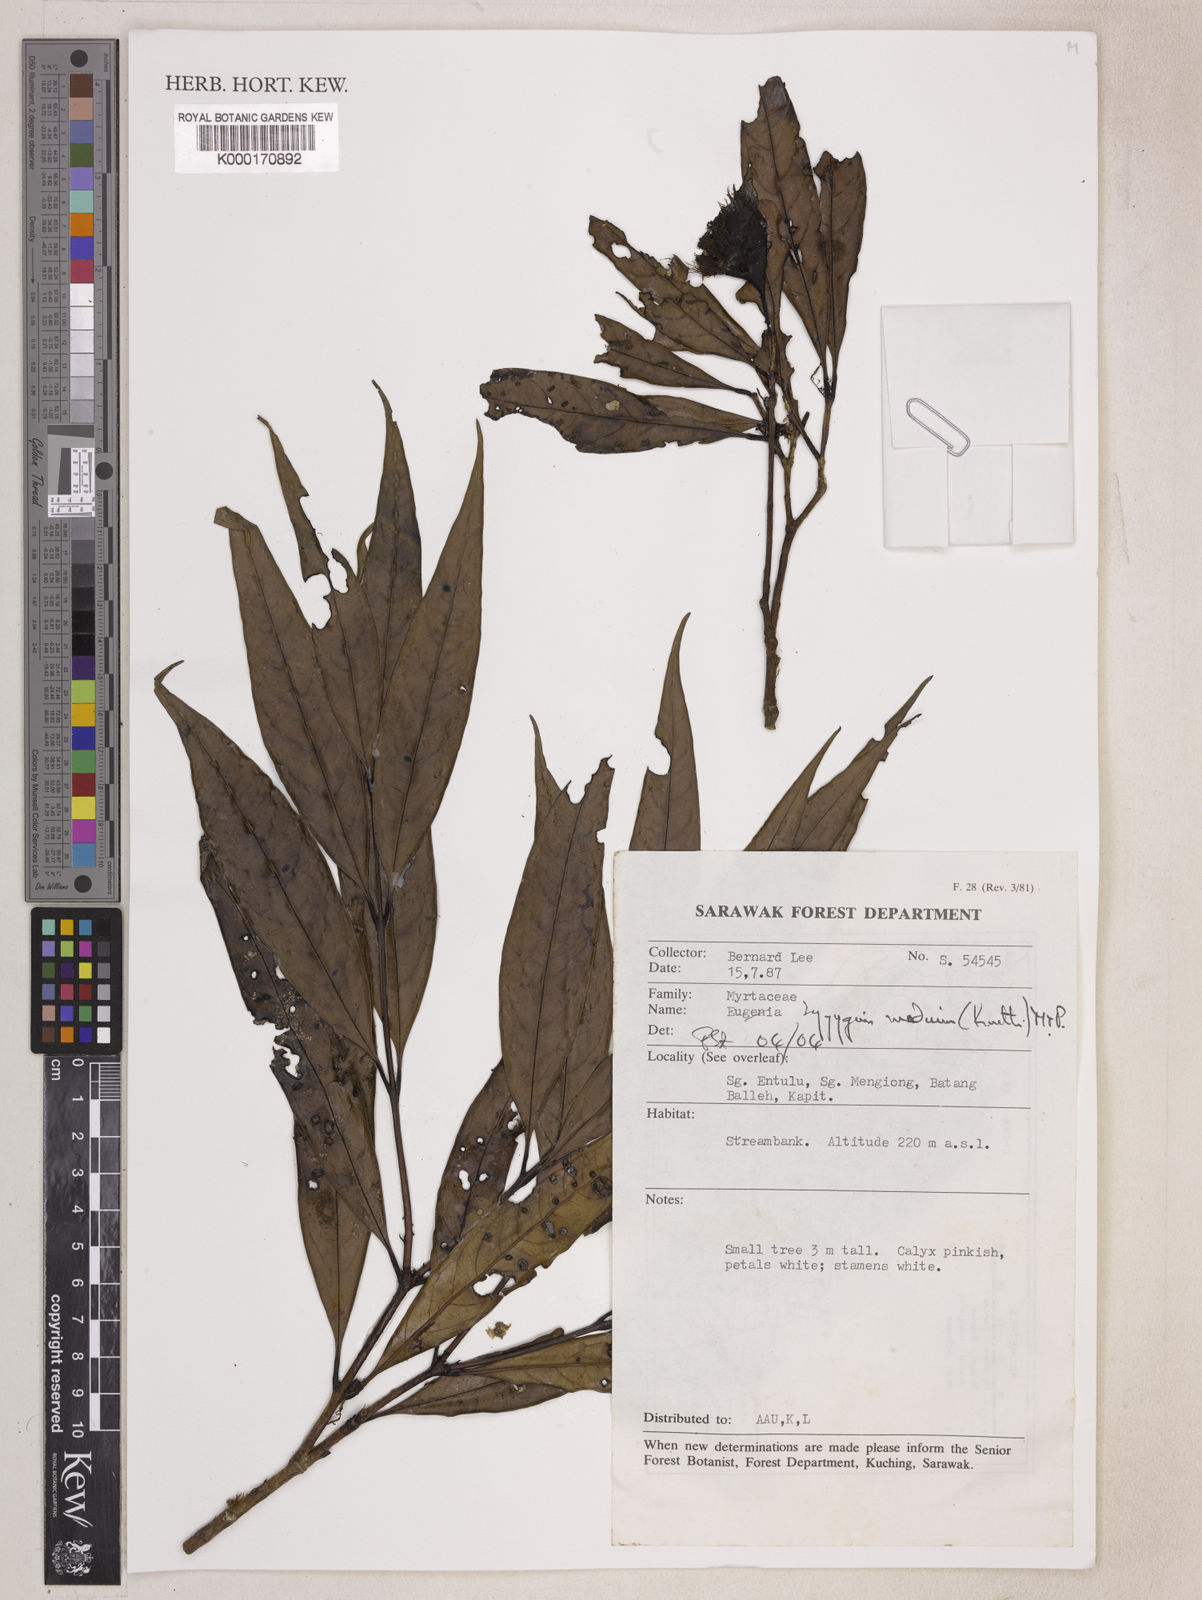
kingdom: Plantae
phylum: Tracheophyta
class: Magnoliopsida
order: Myrtales
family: Myrtaceae
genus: Syzygium
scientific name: Syzygium medium
